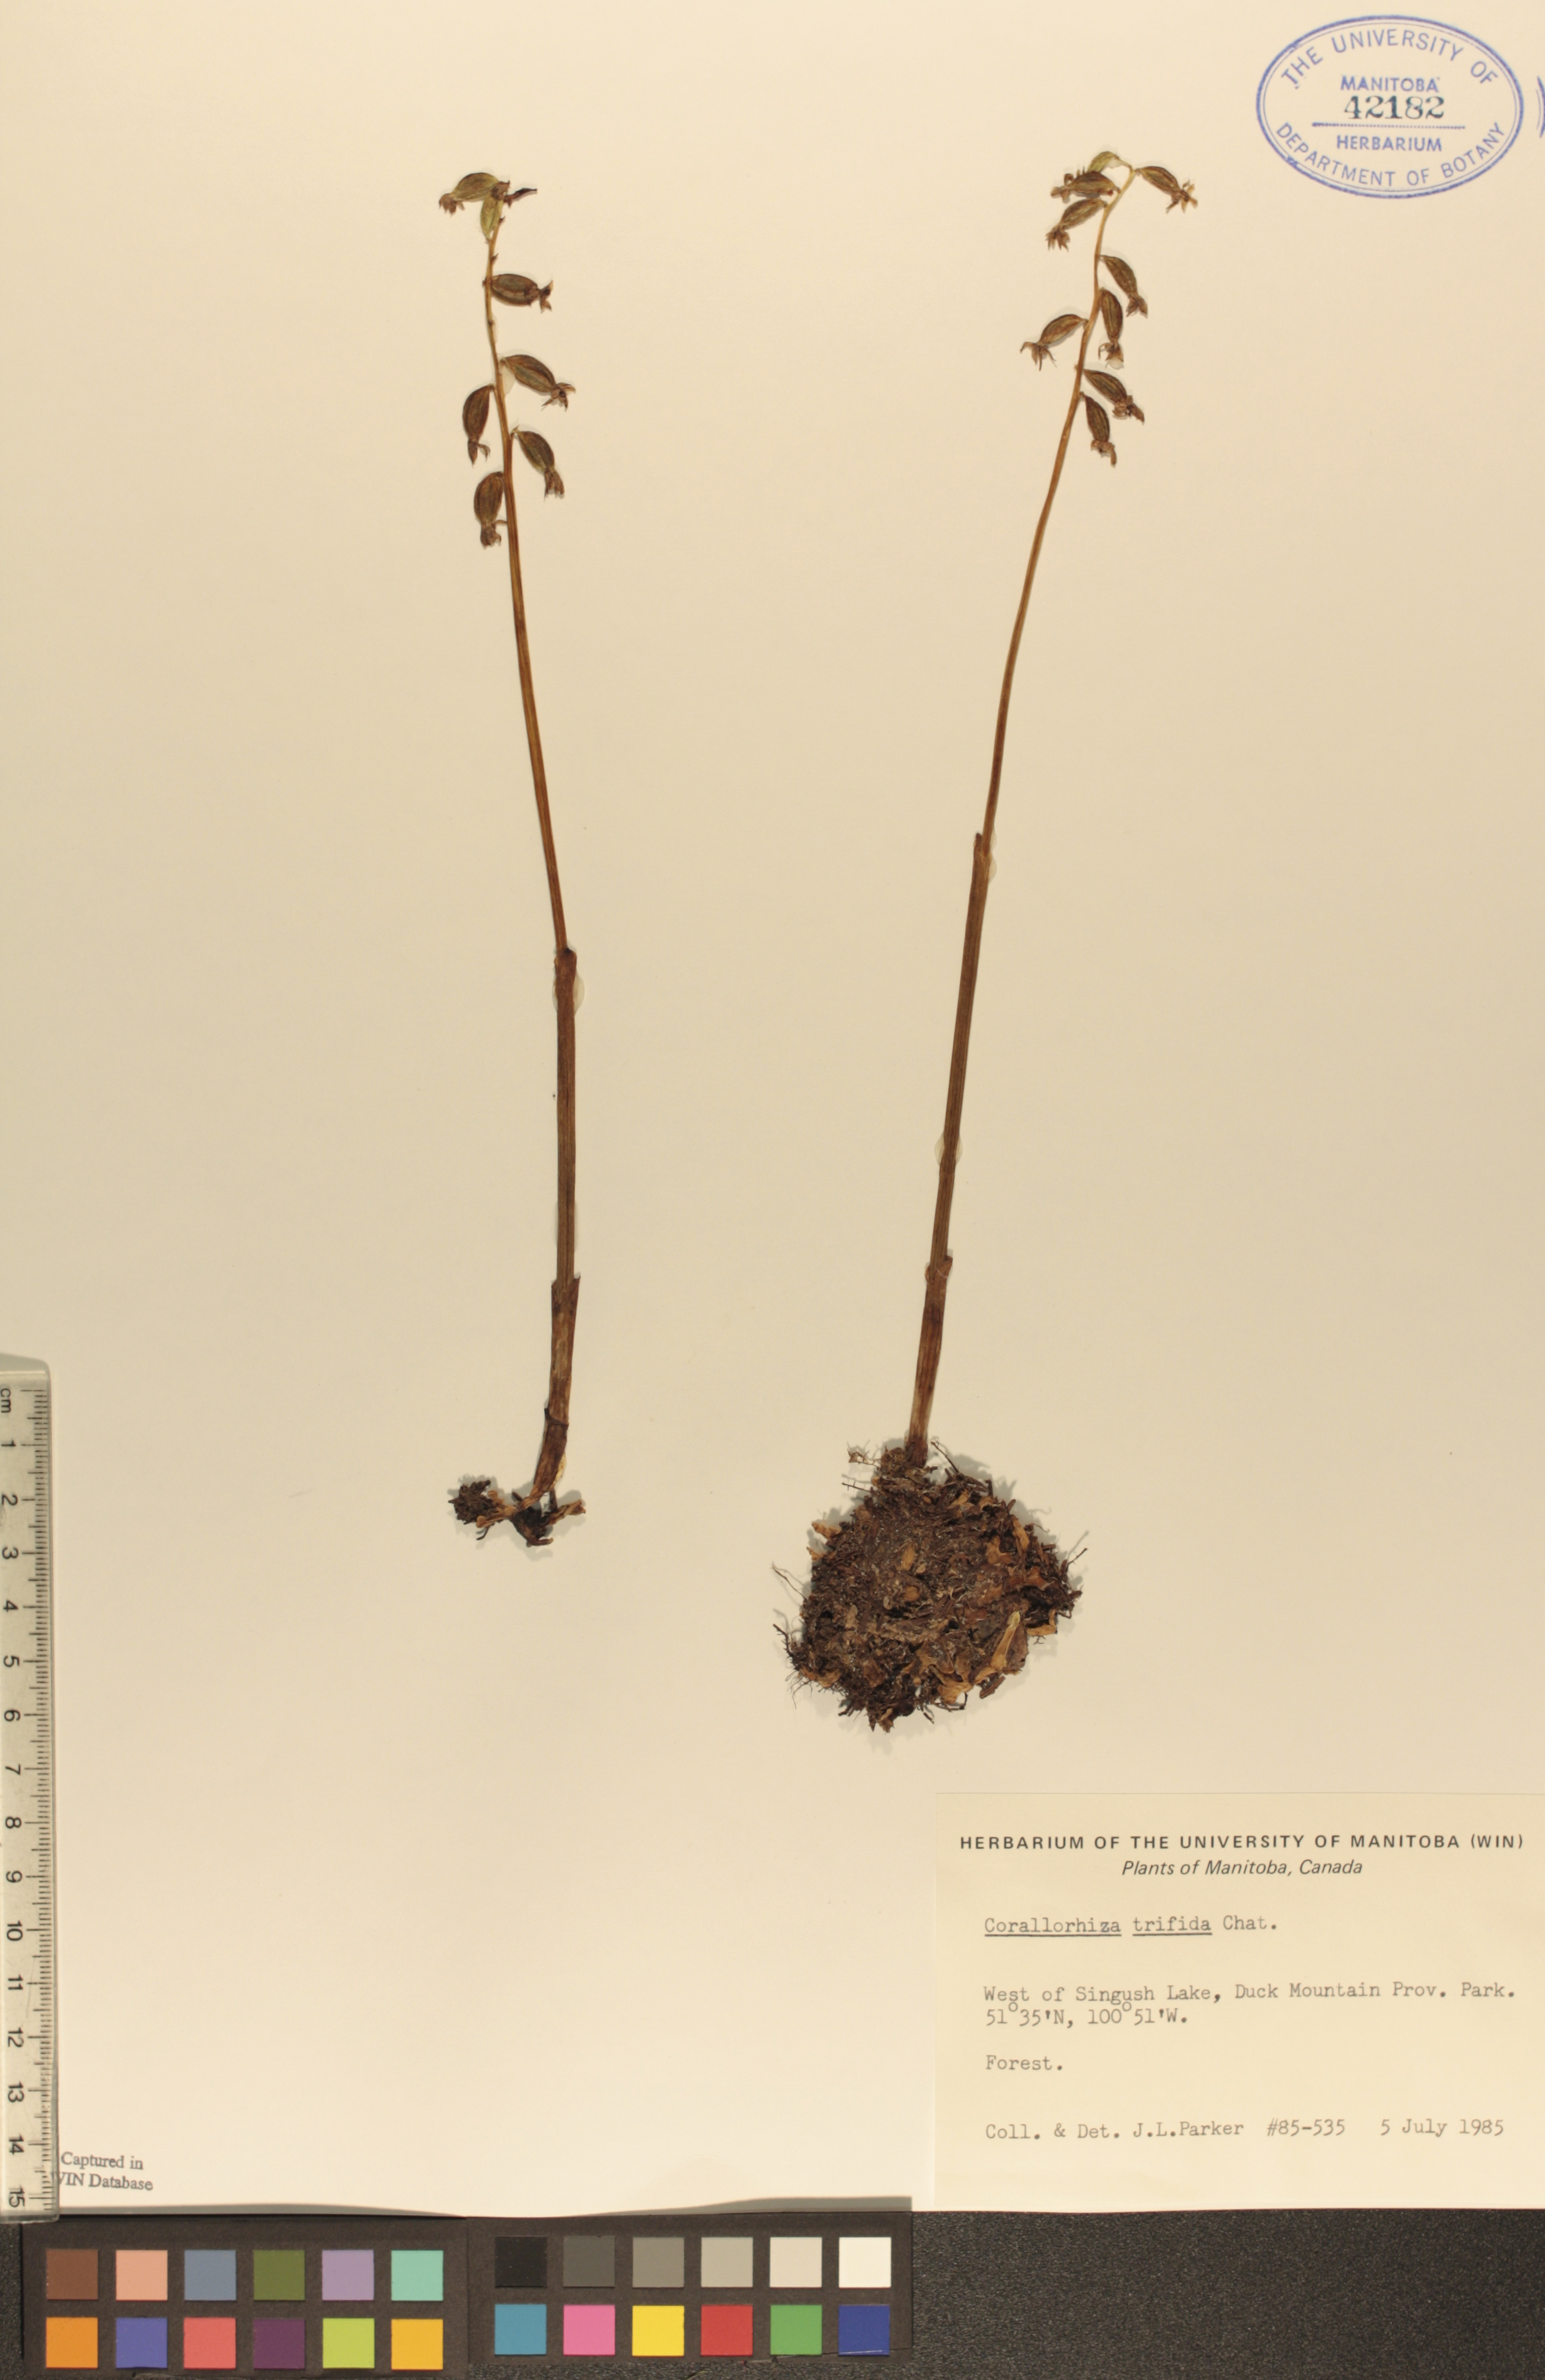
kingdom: Plantae
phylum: Tracheophyta
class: Liliopsida
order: Asparagales
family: Orchidaceae
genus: Corallorhiza
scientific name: Corallorhiza trifida
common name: Yellow coralroot
